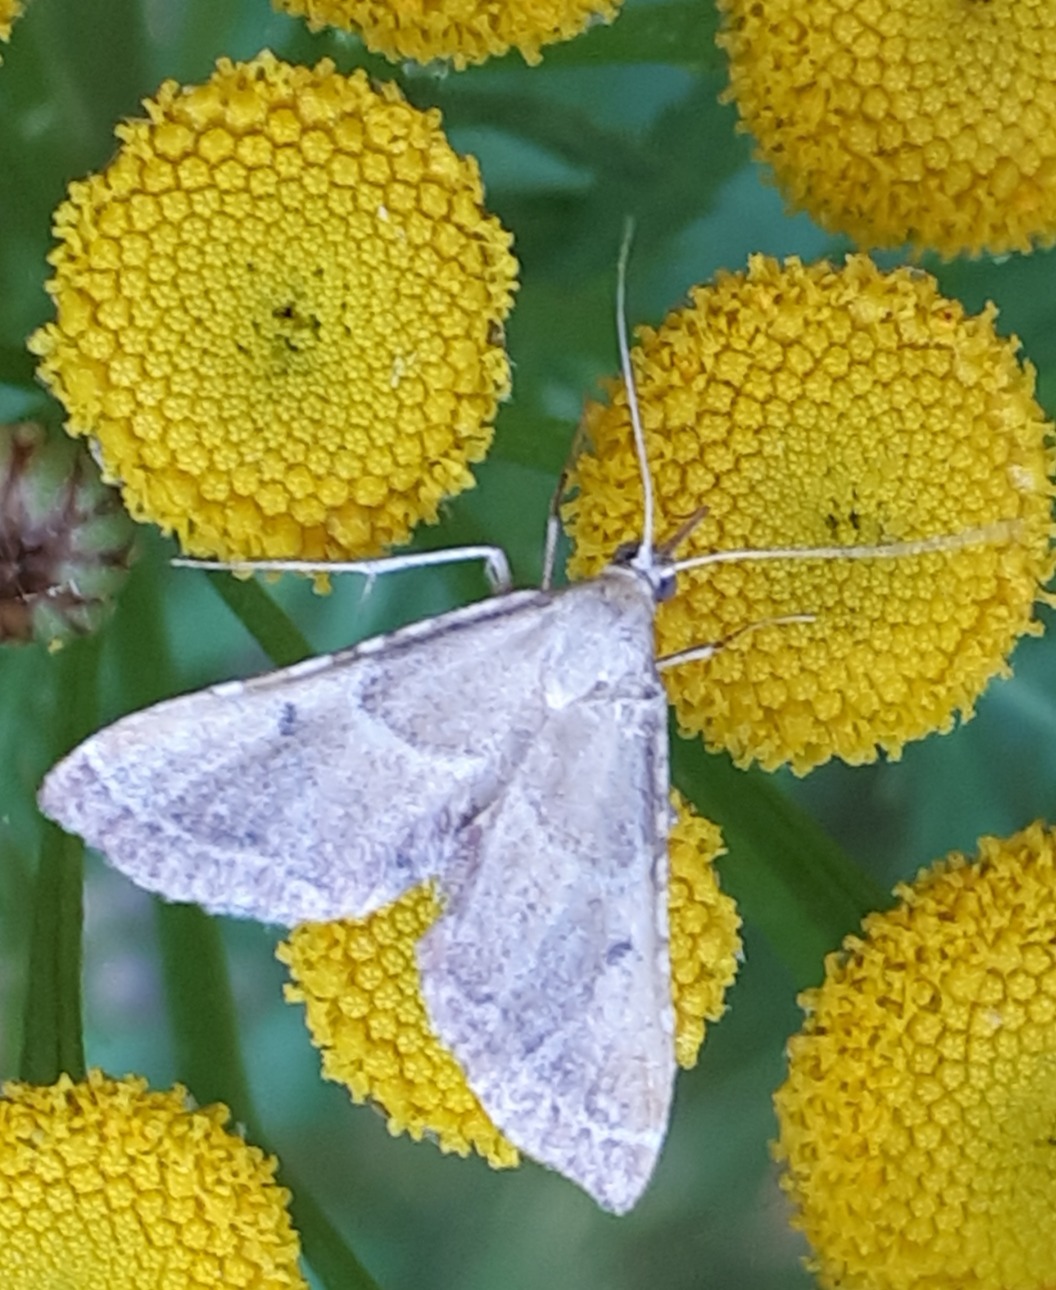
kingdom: Animalia
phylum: Arthropoda
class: Insecta
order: Lepidoptera
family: Pyralidae
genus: Endotricha
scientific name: Endotricha flammealis
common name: Løvkrathalvmøl
